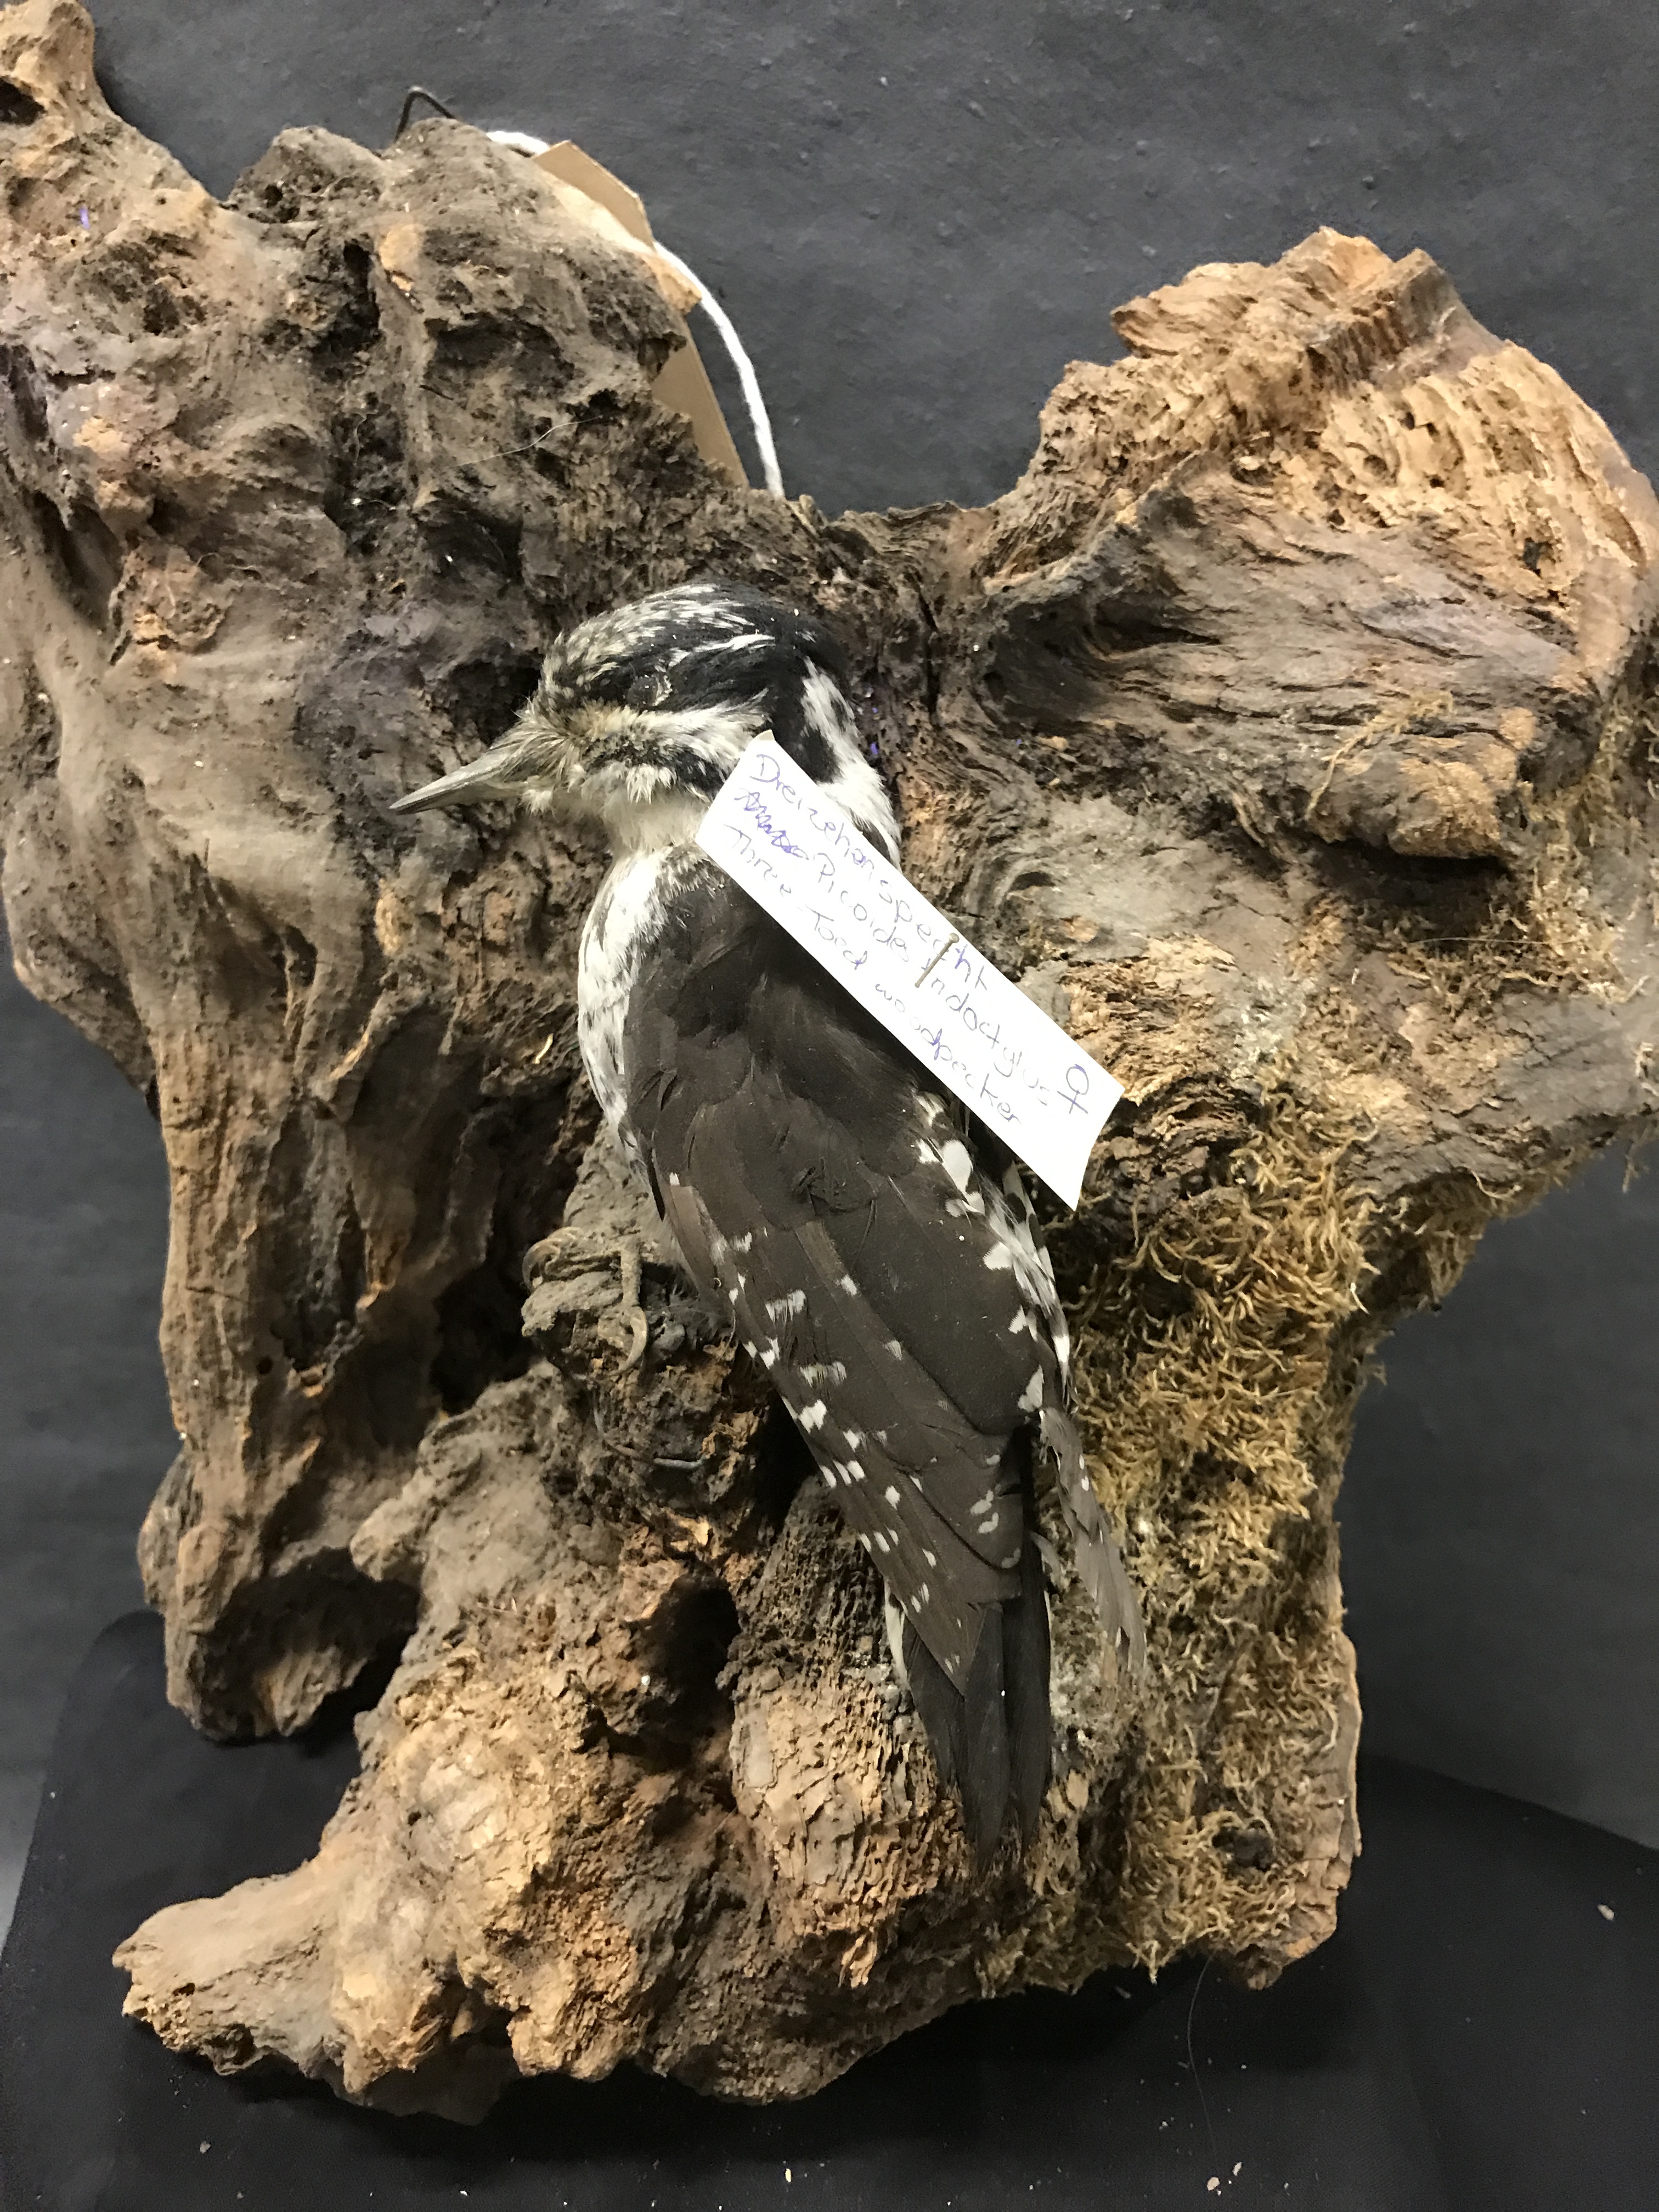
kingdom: Animalia
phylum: Chordata
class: Aves
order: Piciformes
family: Picidae
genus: Picoides
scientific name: Picoides tridactylus
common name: Eurasian three-toed woodpecker
